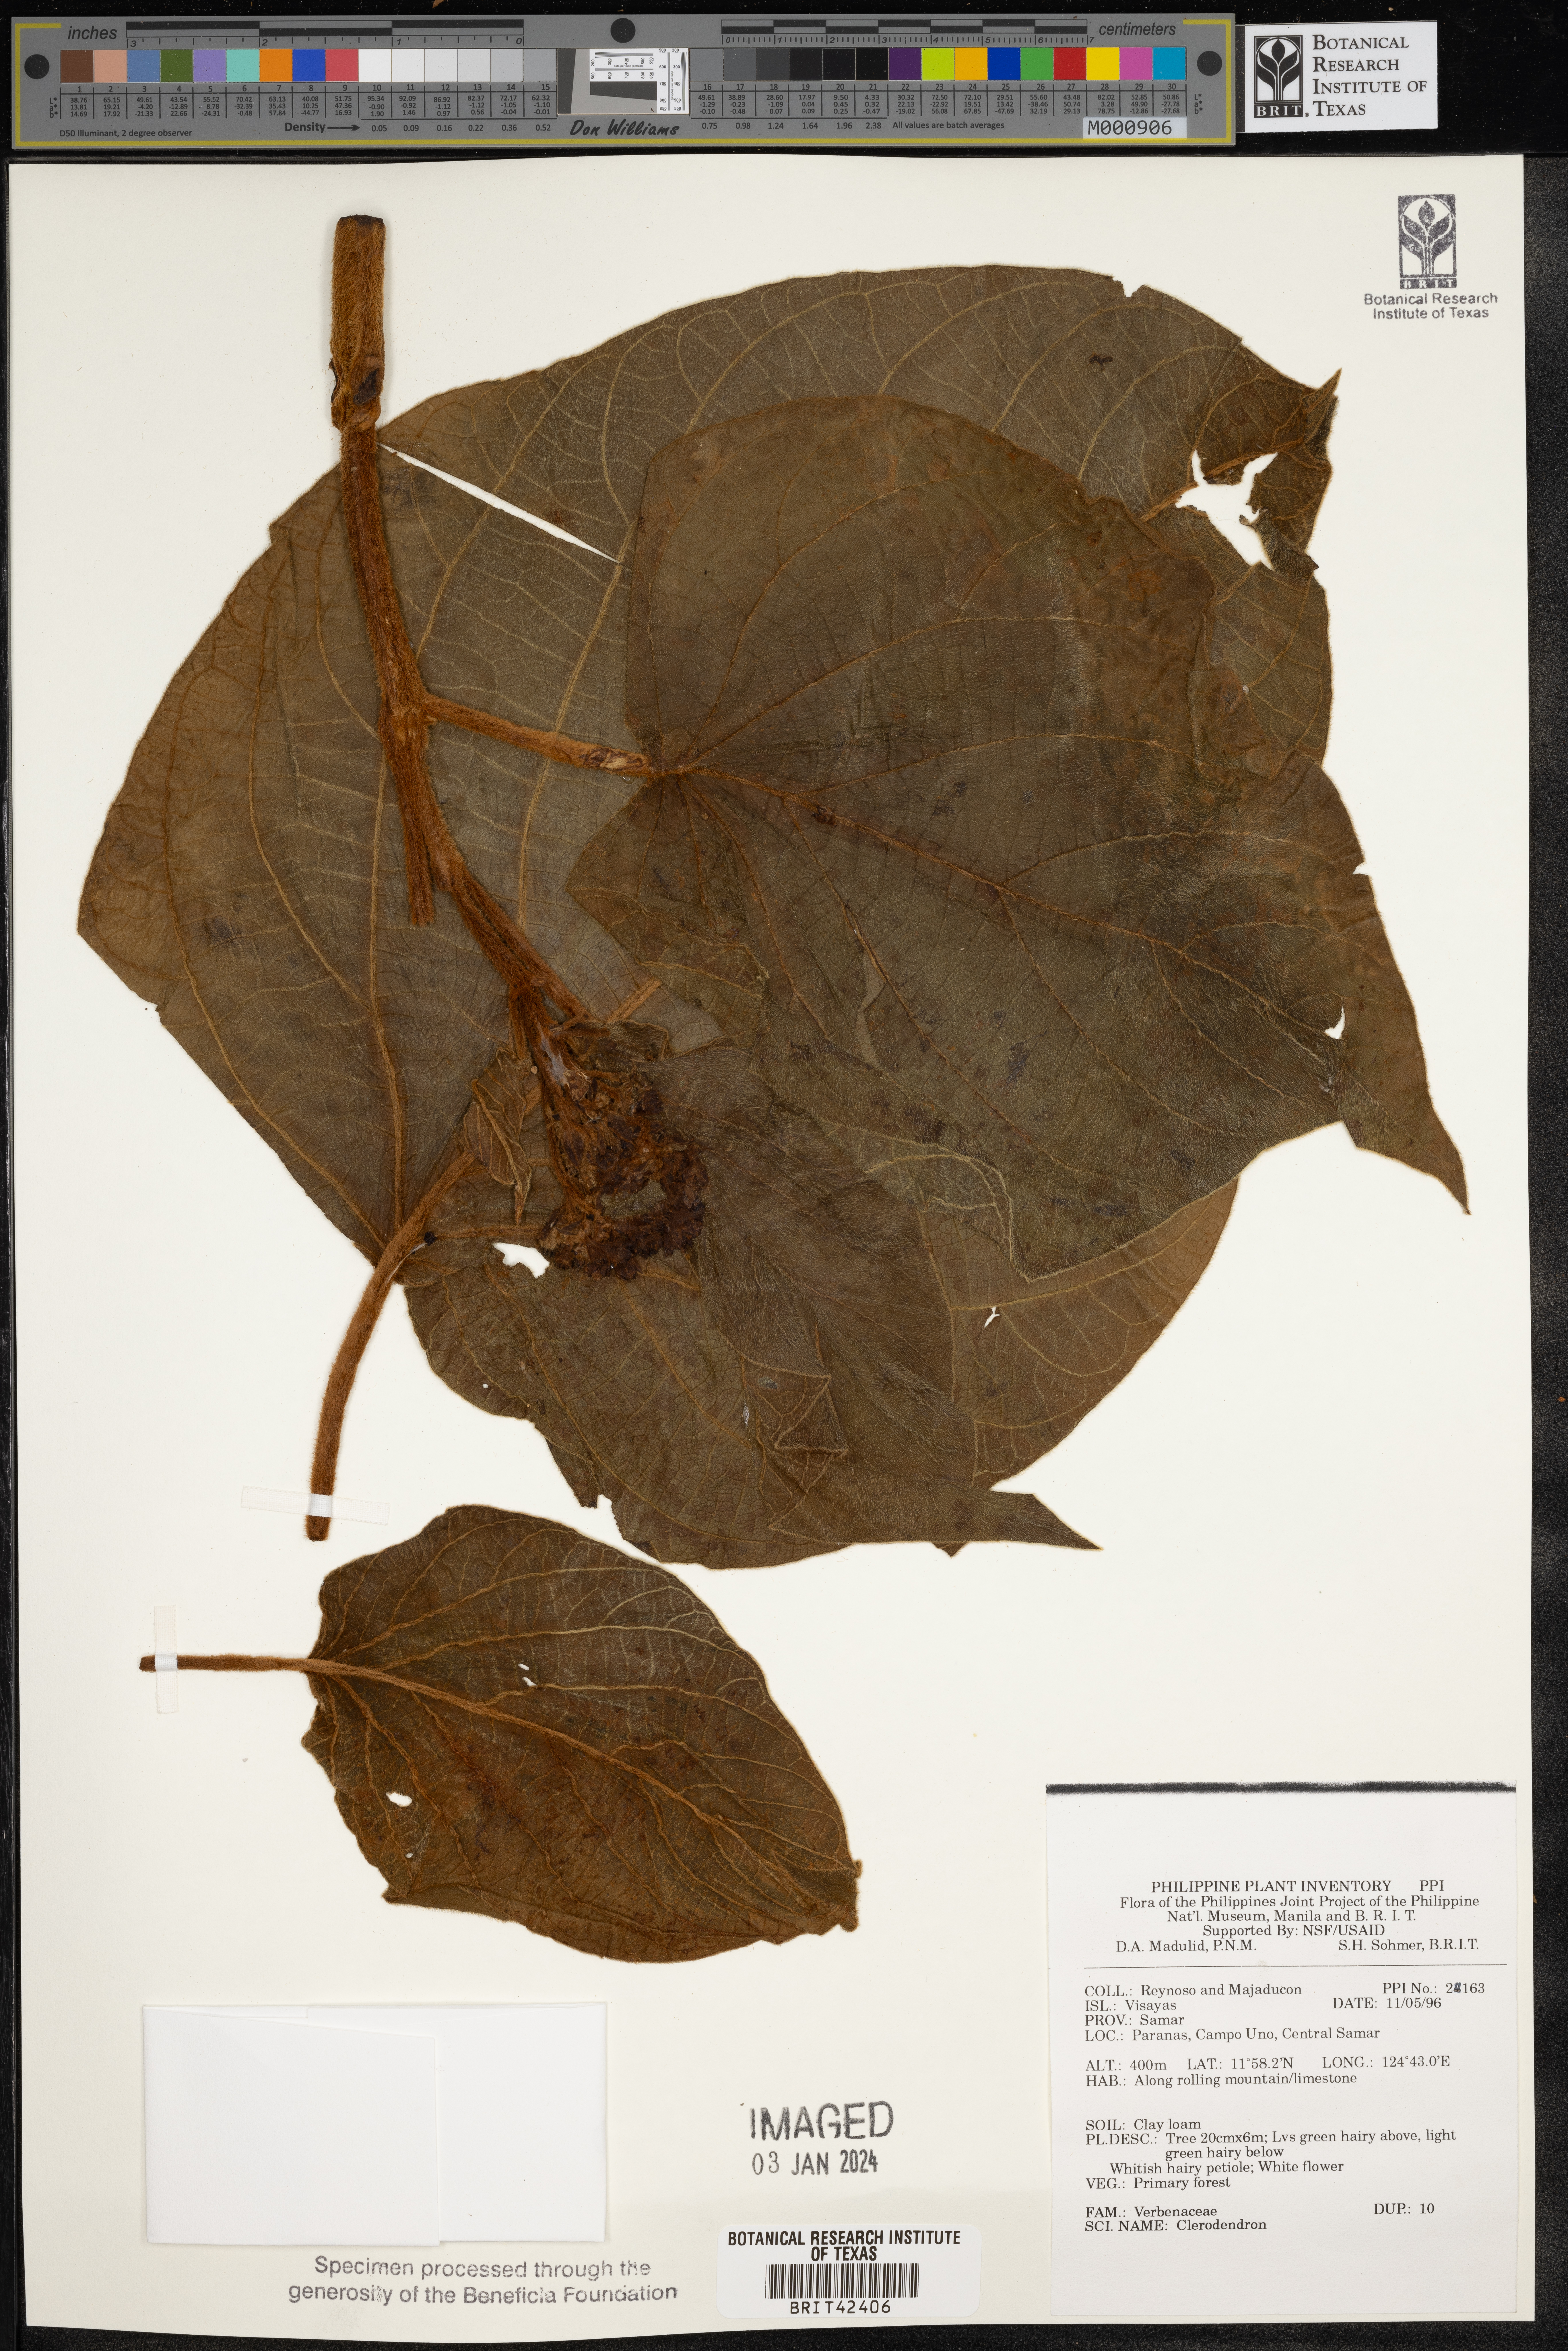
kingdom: Plantae
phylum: Tracheophyta
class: Magnoliopsida
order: Lamiales
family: Lamiaceae
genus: Clerodendrum
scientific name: Clerodendrum
